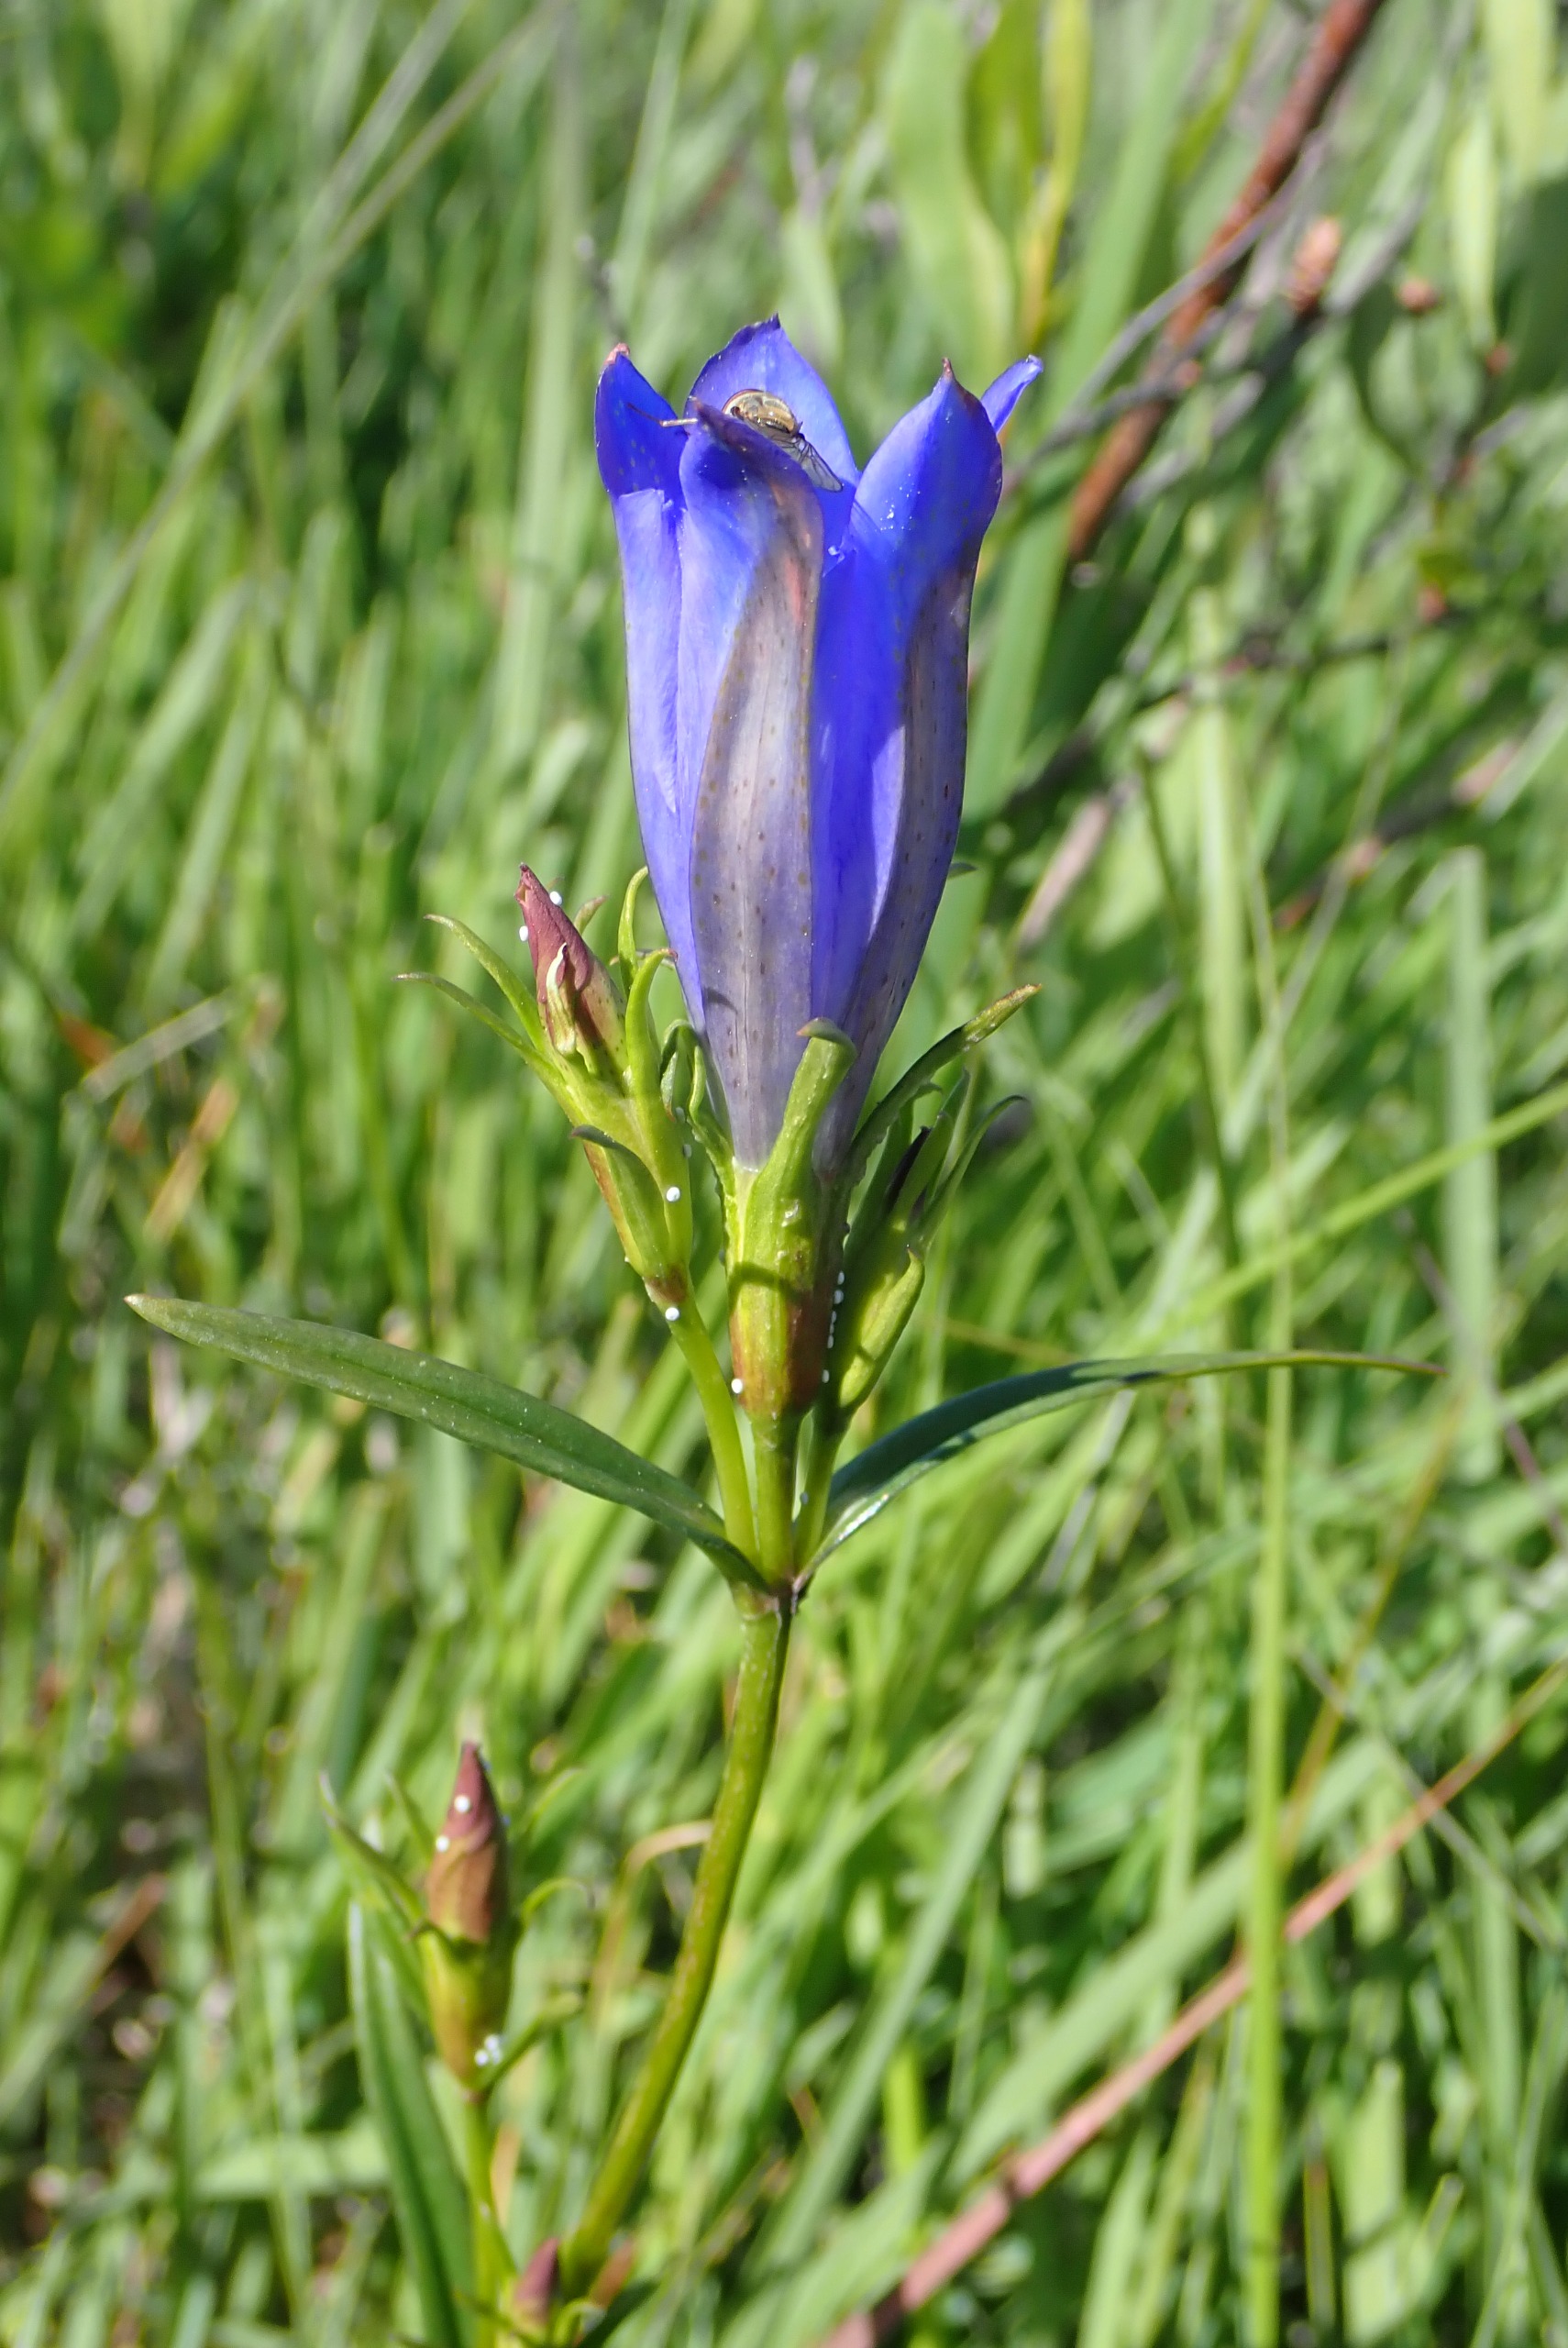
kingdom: Plantae
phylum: Tracheophyta
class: Magnoliopsida
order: Gentianales
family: Gentianaceae
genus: Gentiana
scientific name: Gentiana pneumonanthe
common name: Klokke-ensian
